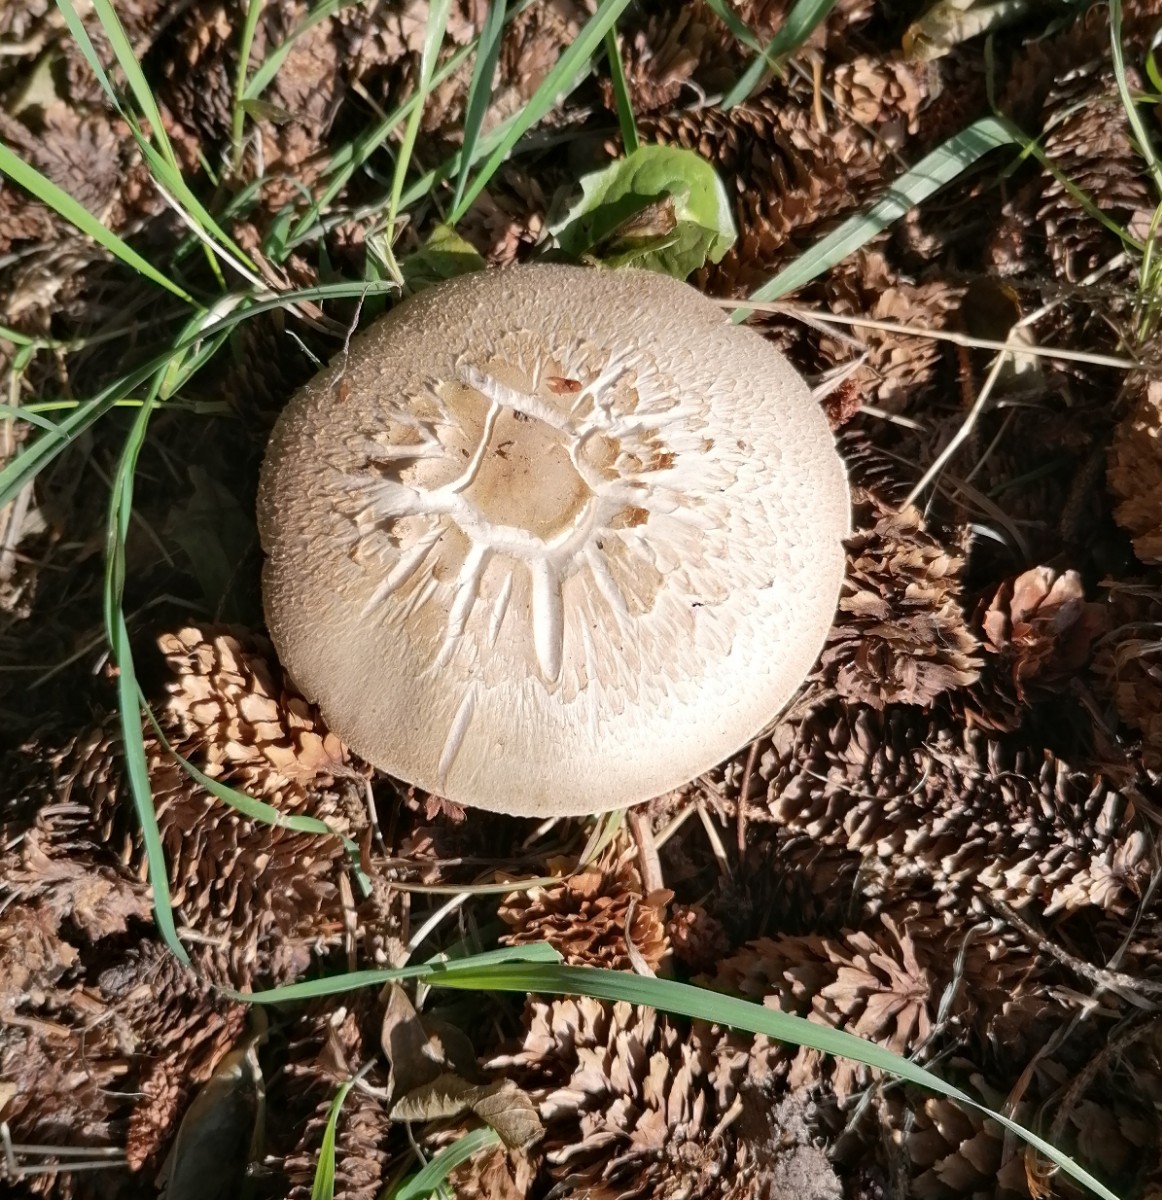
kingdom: Fungi
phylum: Basidiomycota
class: Agaricomycetes
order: Agaricales
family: Agaricaceae
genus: Agaricus
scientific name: Agaricus sylvicola
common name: gulhvid champignon
